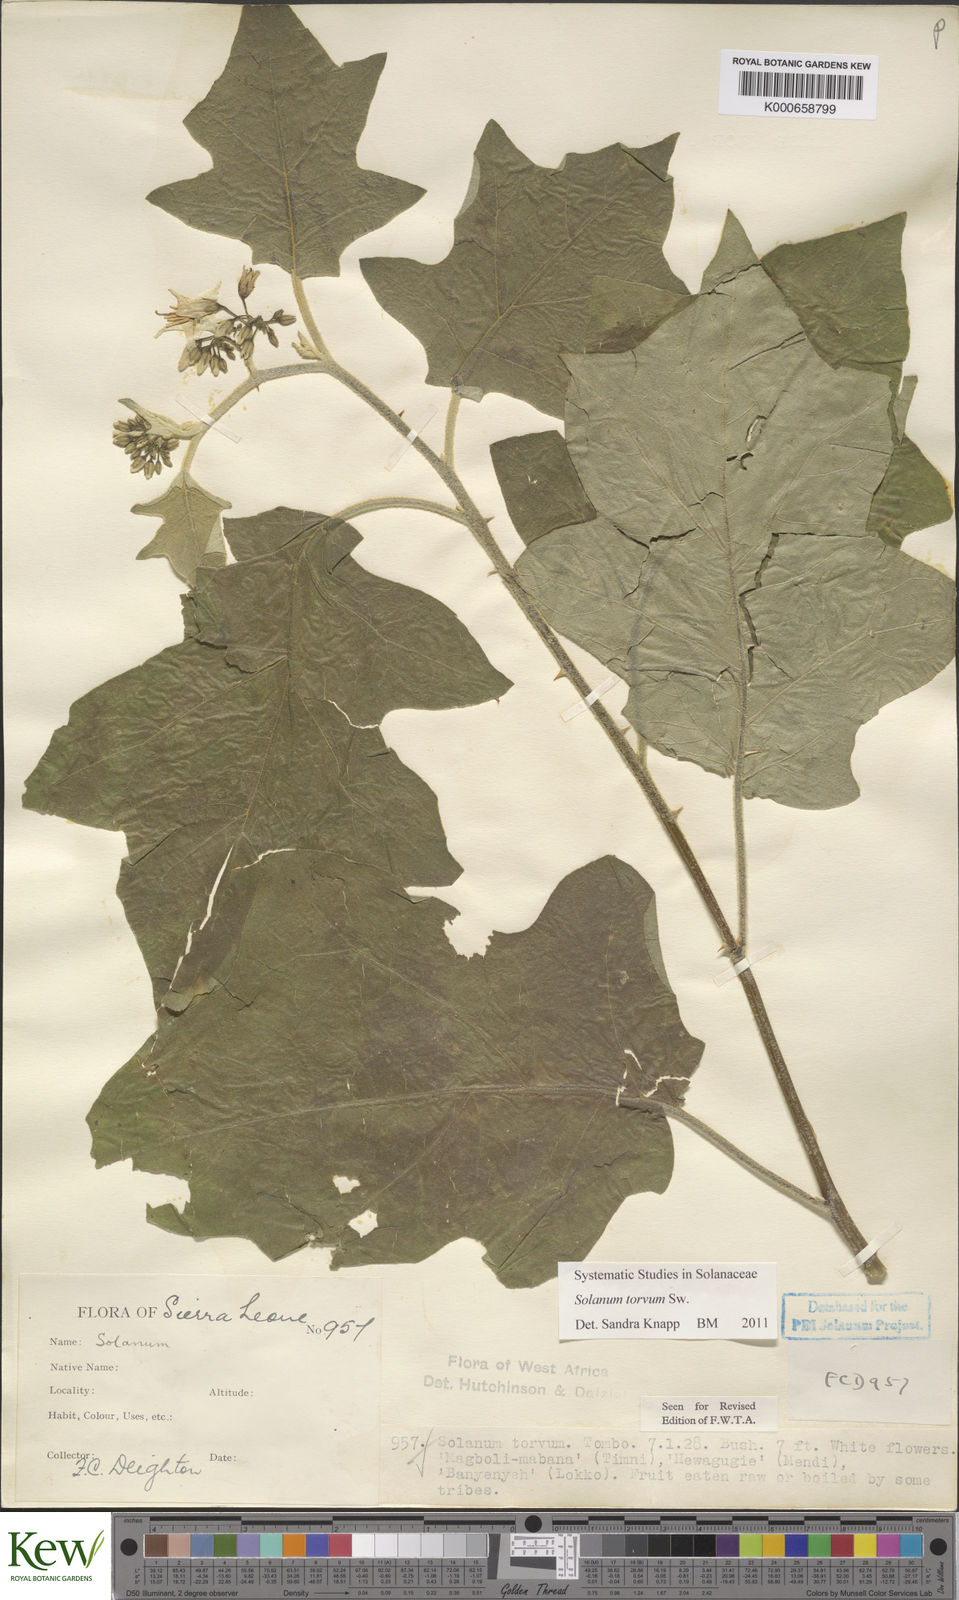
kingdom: Plantae
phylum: Tracheophyta
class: Magnoliopsida
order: Solanales
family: Solanaceae
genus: Solanum
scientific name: Solanum torvum
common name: Turkey berry
